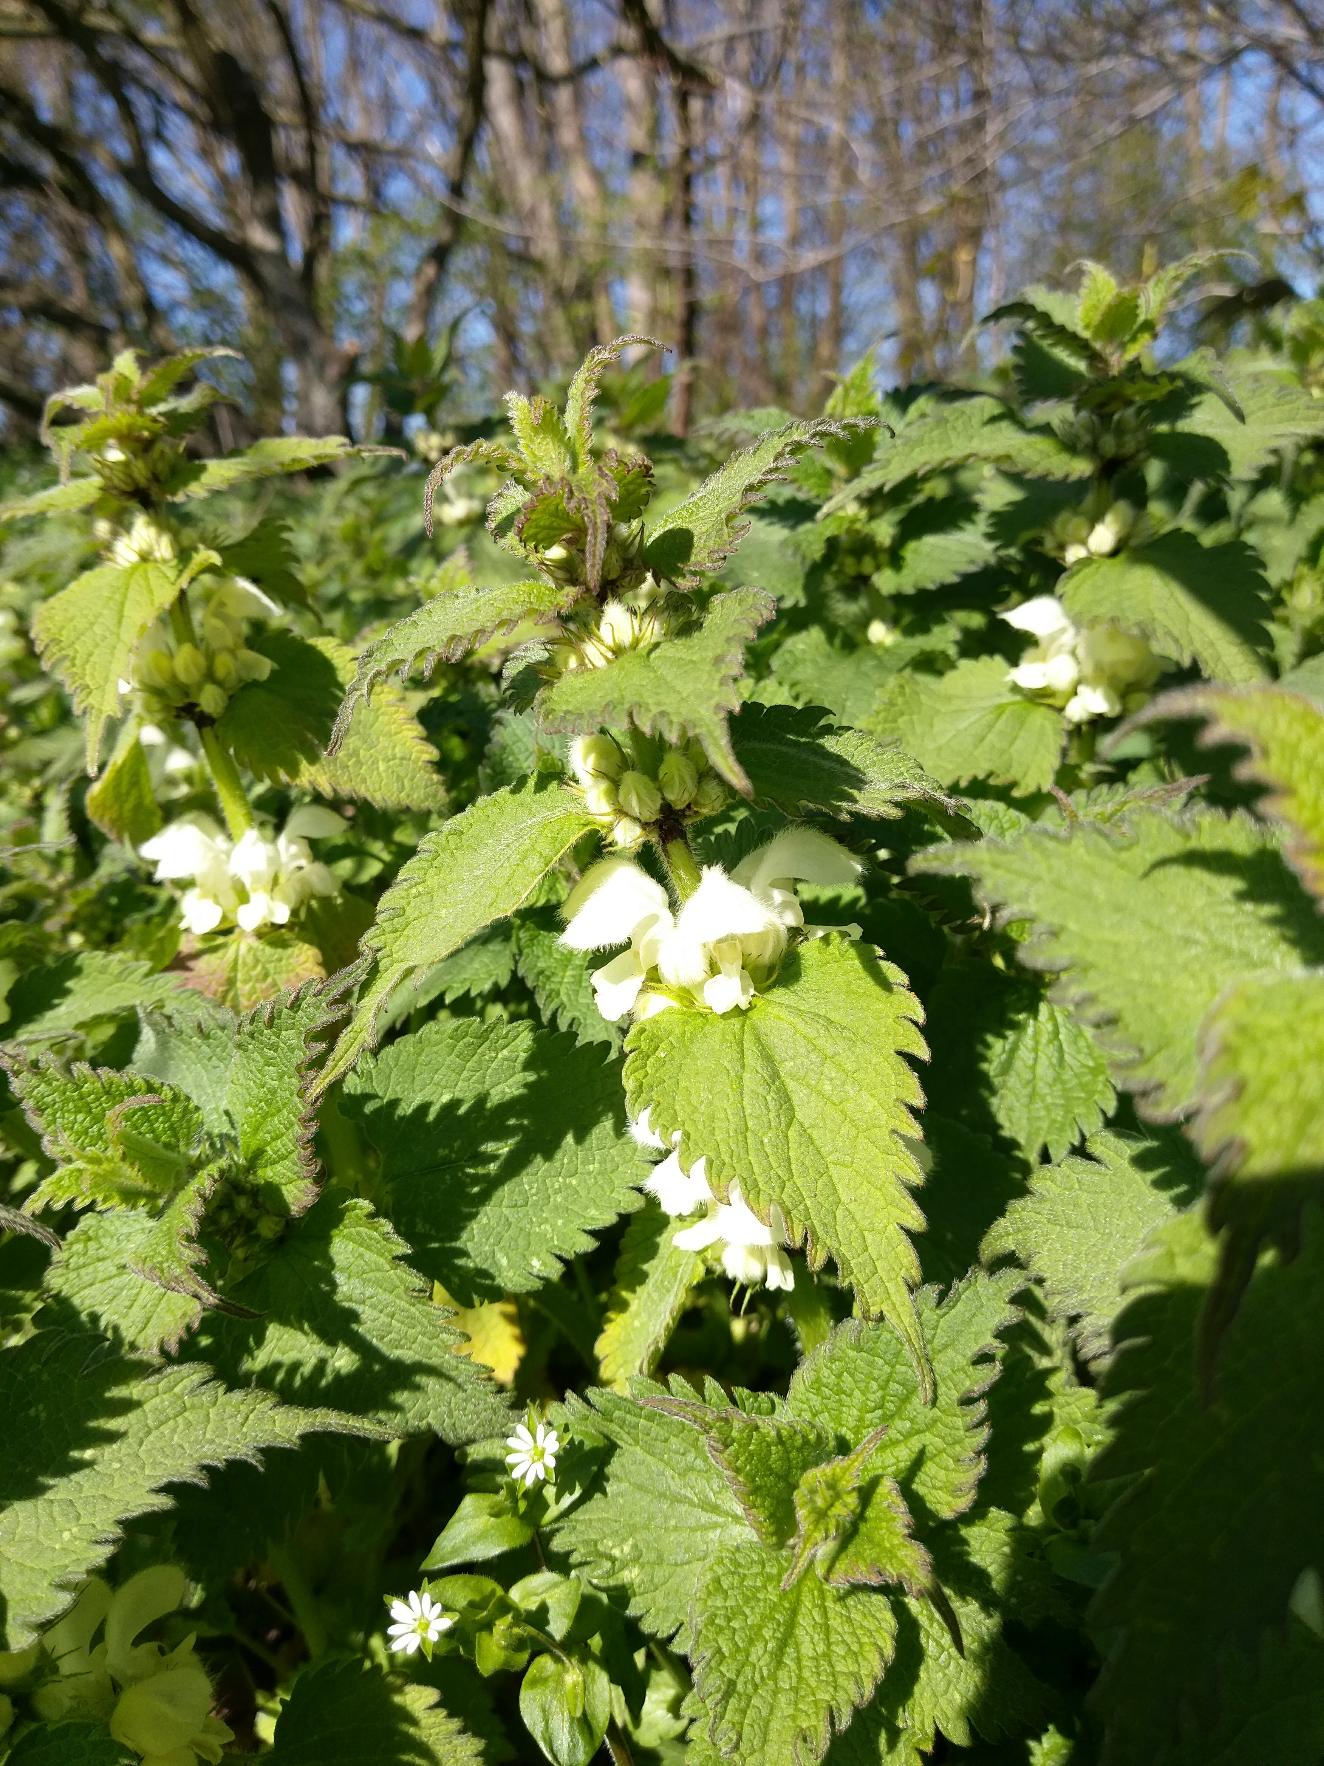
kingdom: Plantae
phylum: Tracheophyta
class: Magnoliopsida
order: Lamiales
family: Lamiaceae
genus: Lamium
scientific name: Lamium album
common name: Døvnælde
